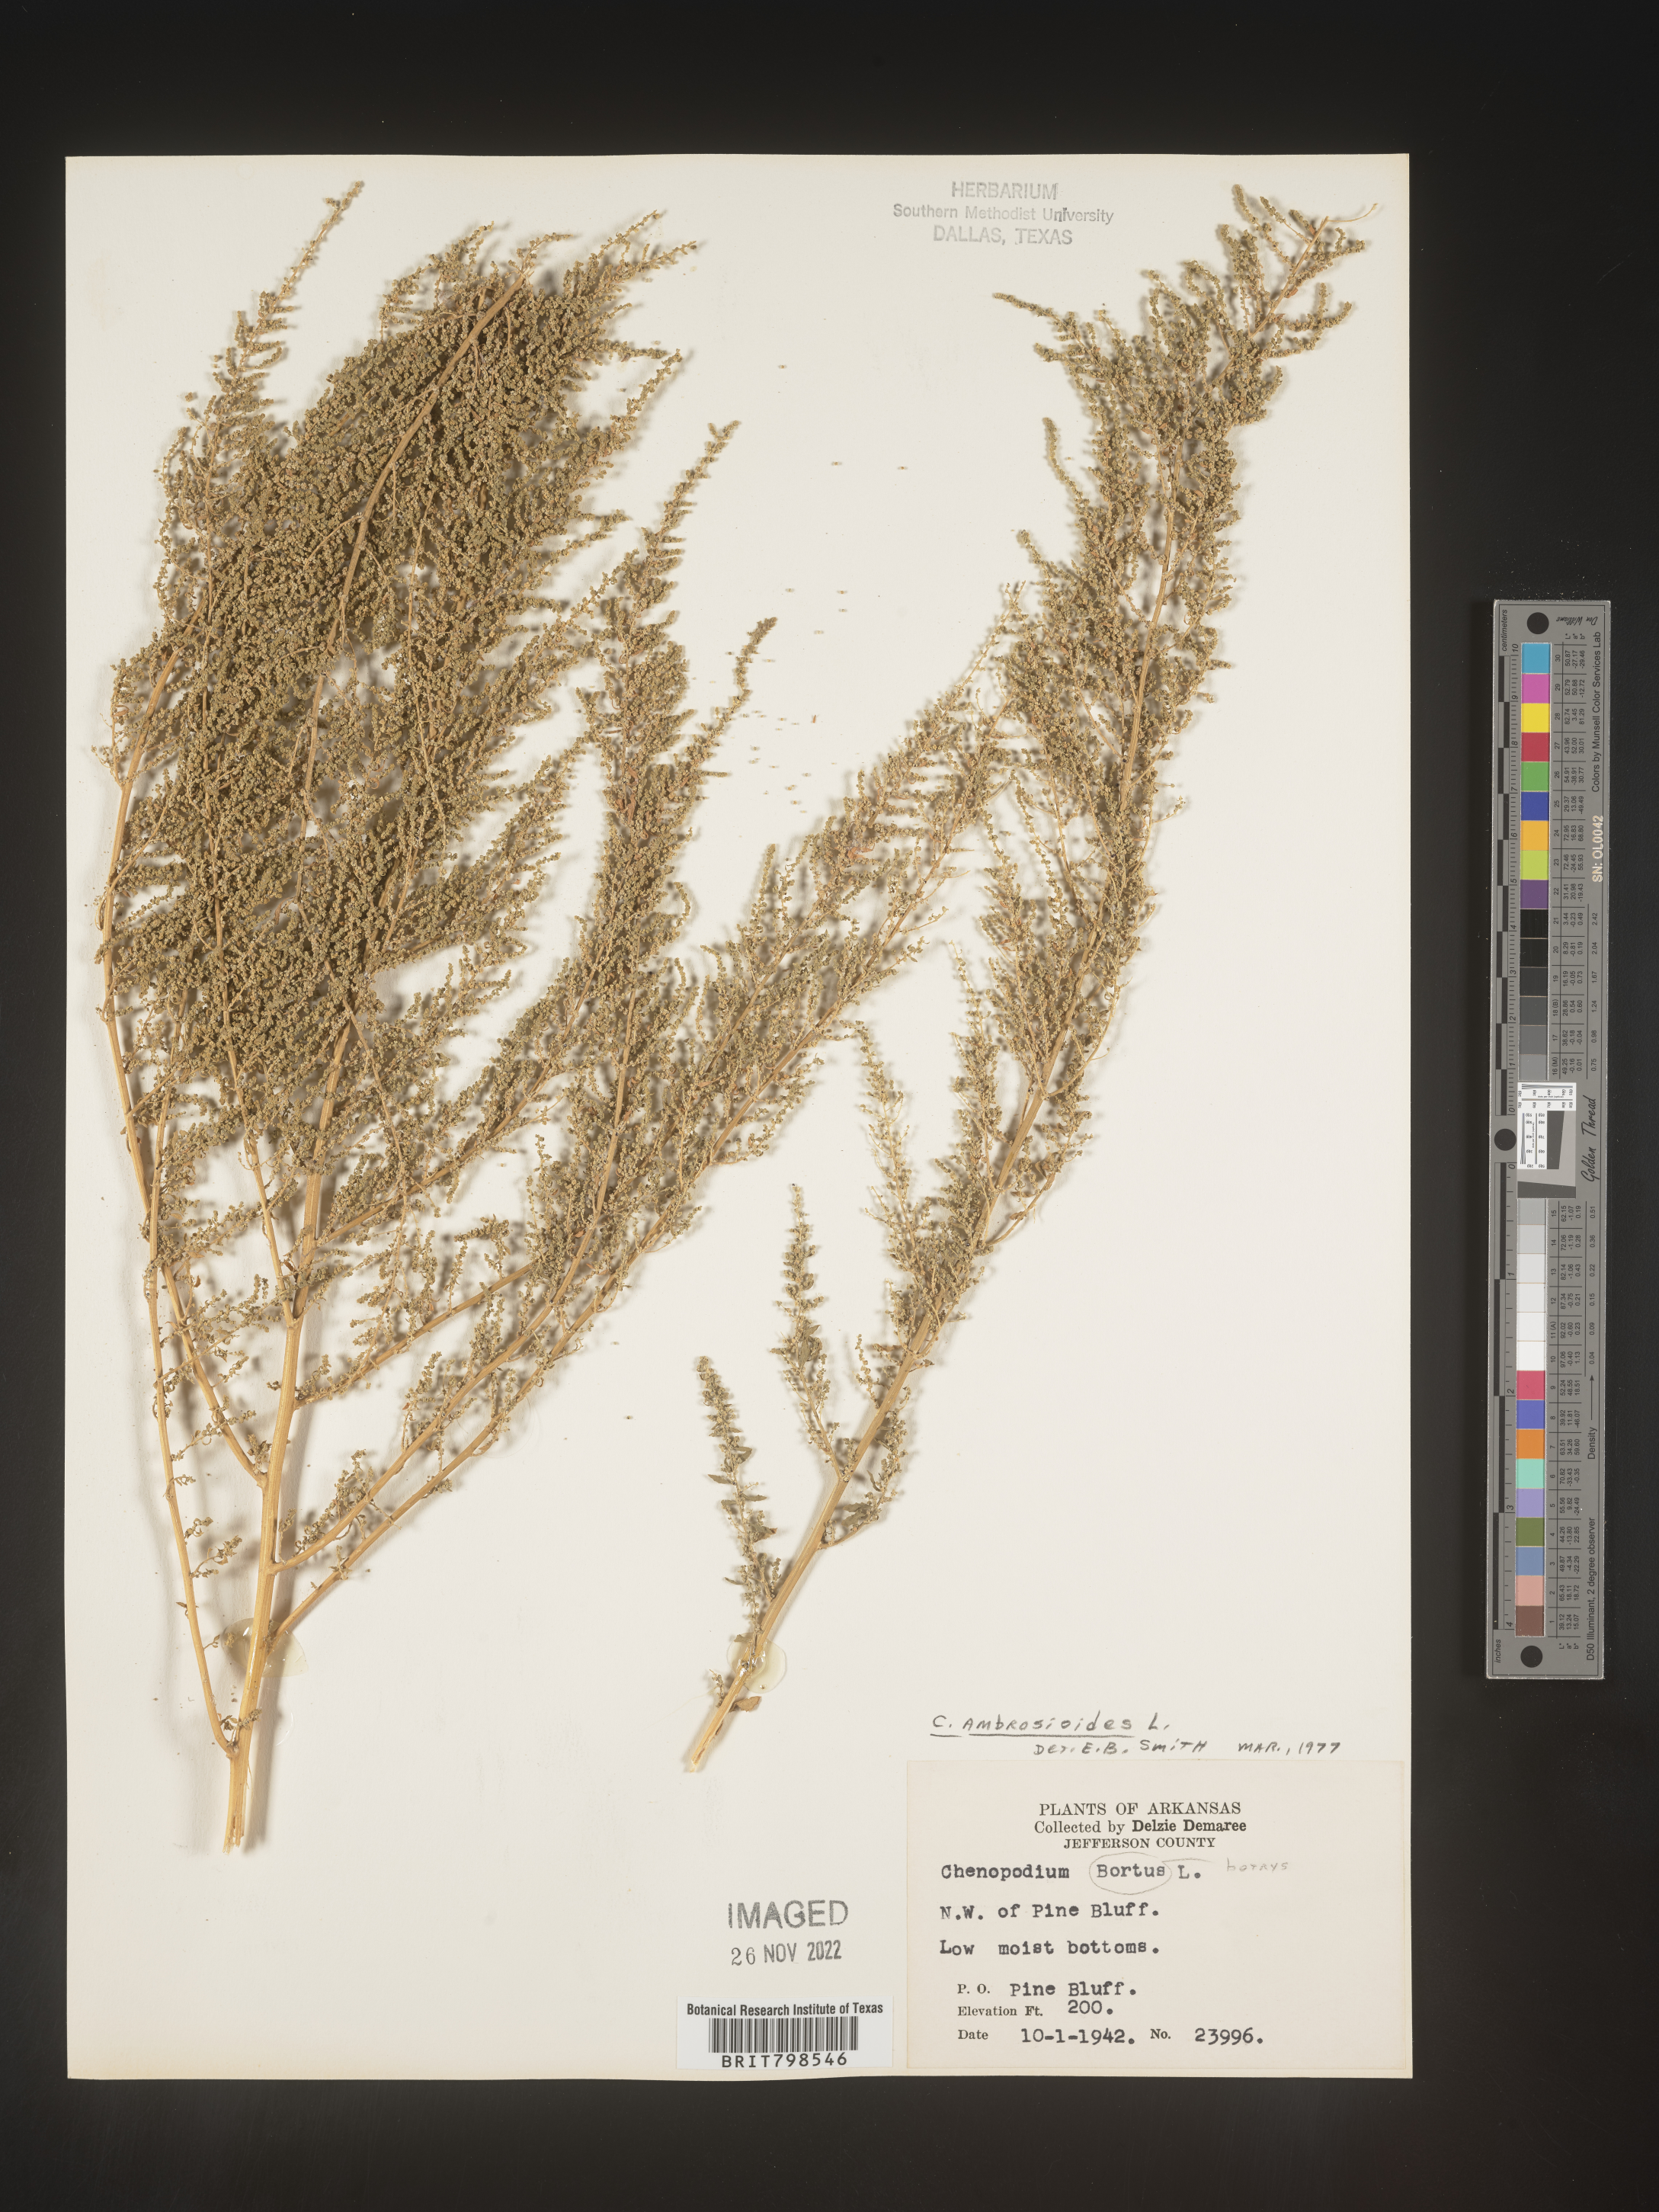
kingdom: Plantae
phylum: Tracheophyta
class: Magnoliopsida
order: Caryophyllales
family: Amaranthaceae
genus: Dysphania
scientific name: Dysphania ambrosioides
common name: Wormseed
